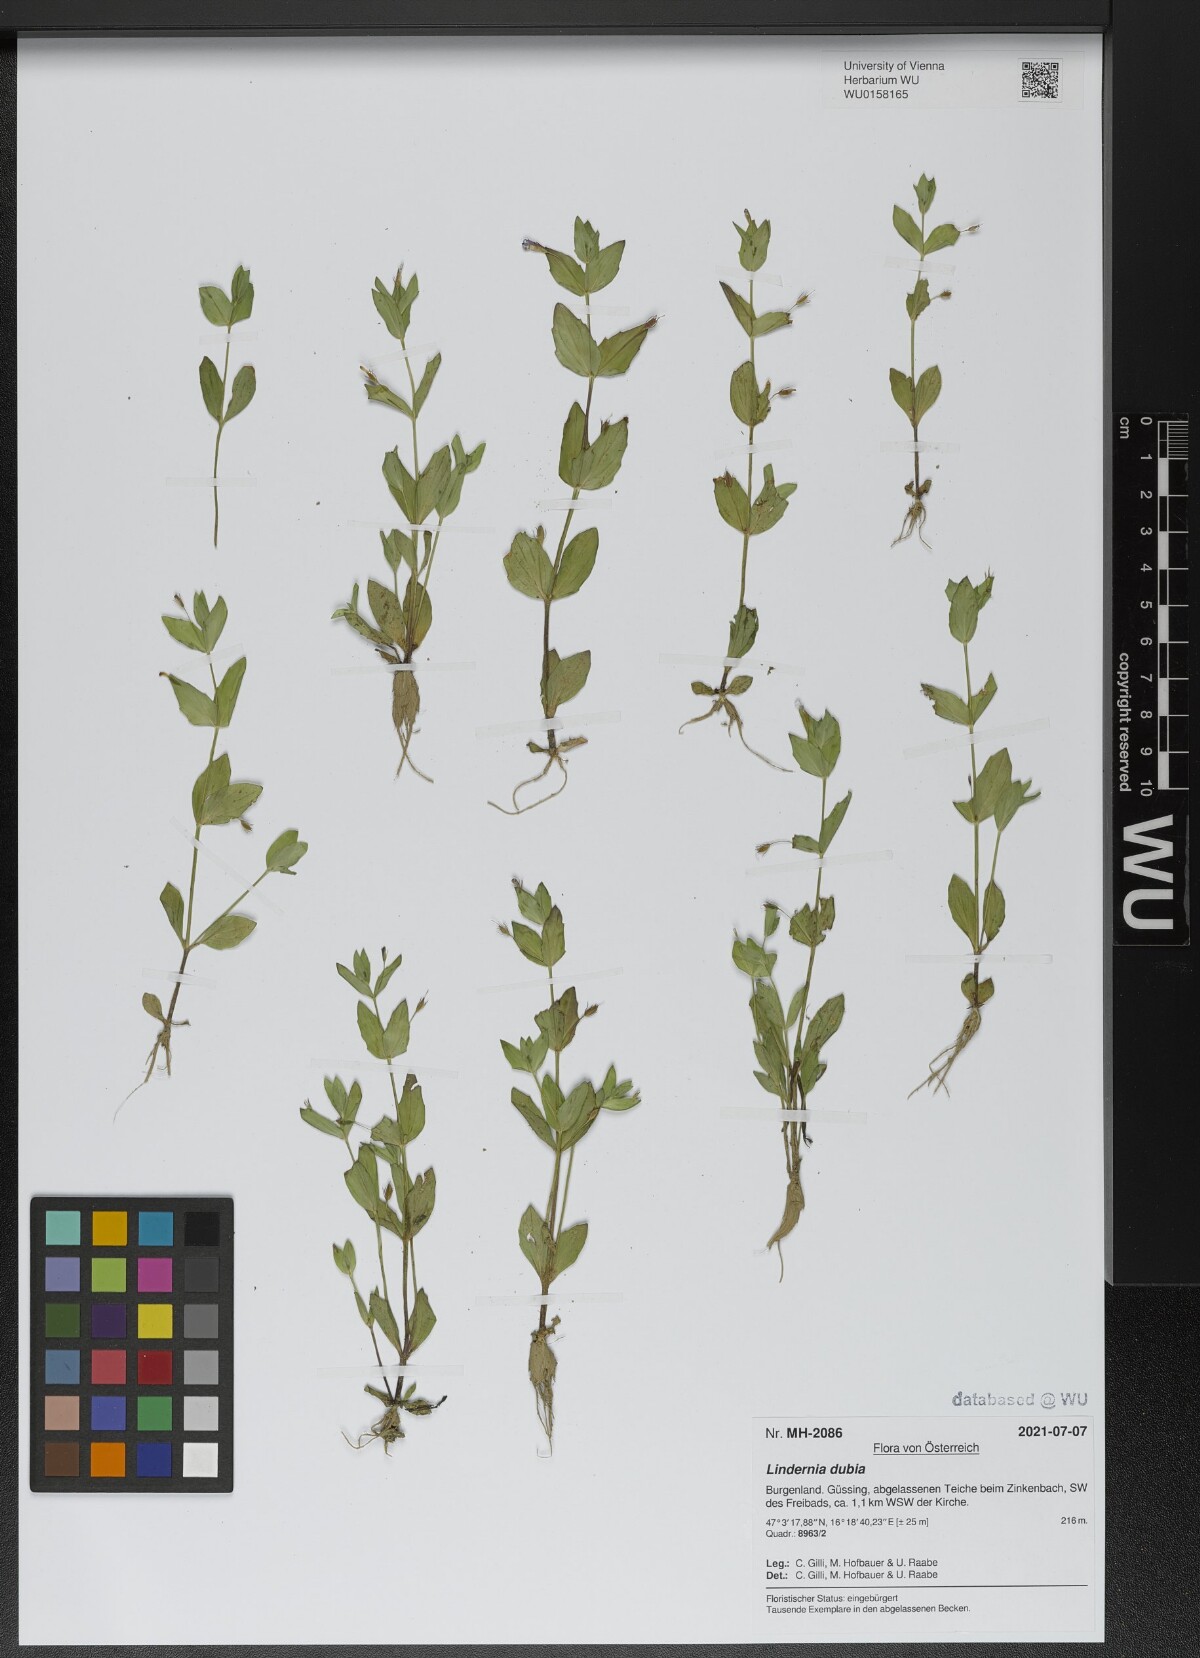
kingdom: Plantae
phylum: Tracheophyta
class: Magnoliopsida
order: Lamiales
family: Linderniaceae
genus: Lindernia
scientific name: Lindernia dubia
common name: Annual false pimpernel
